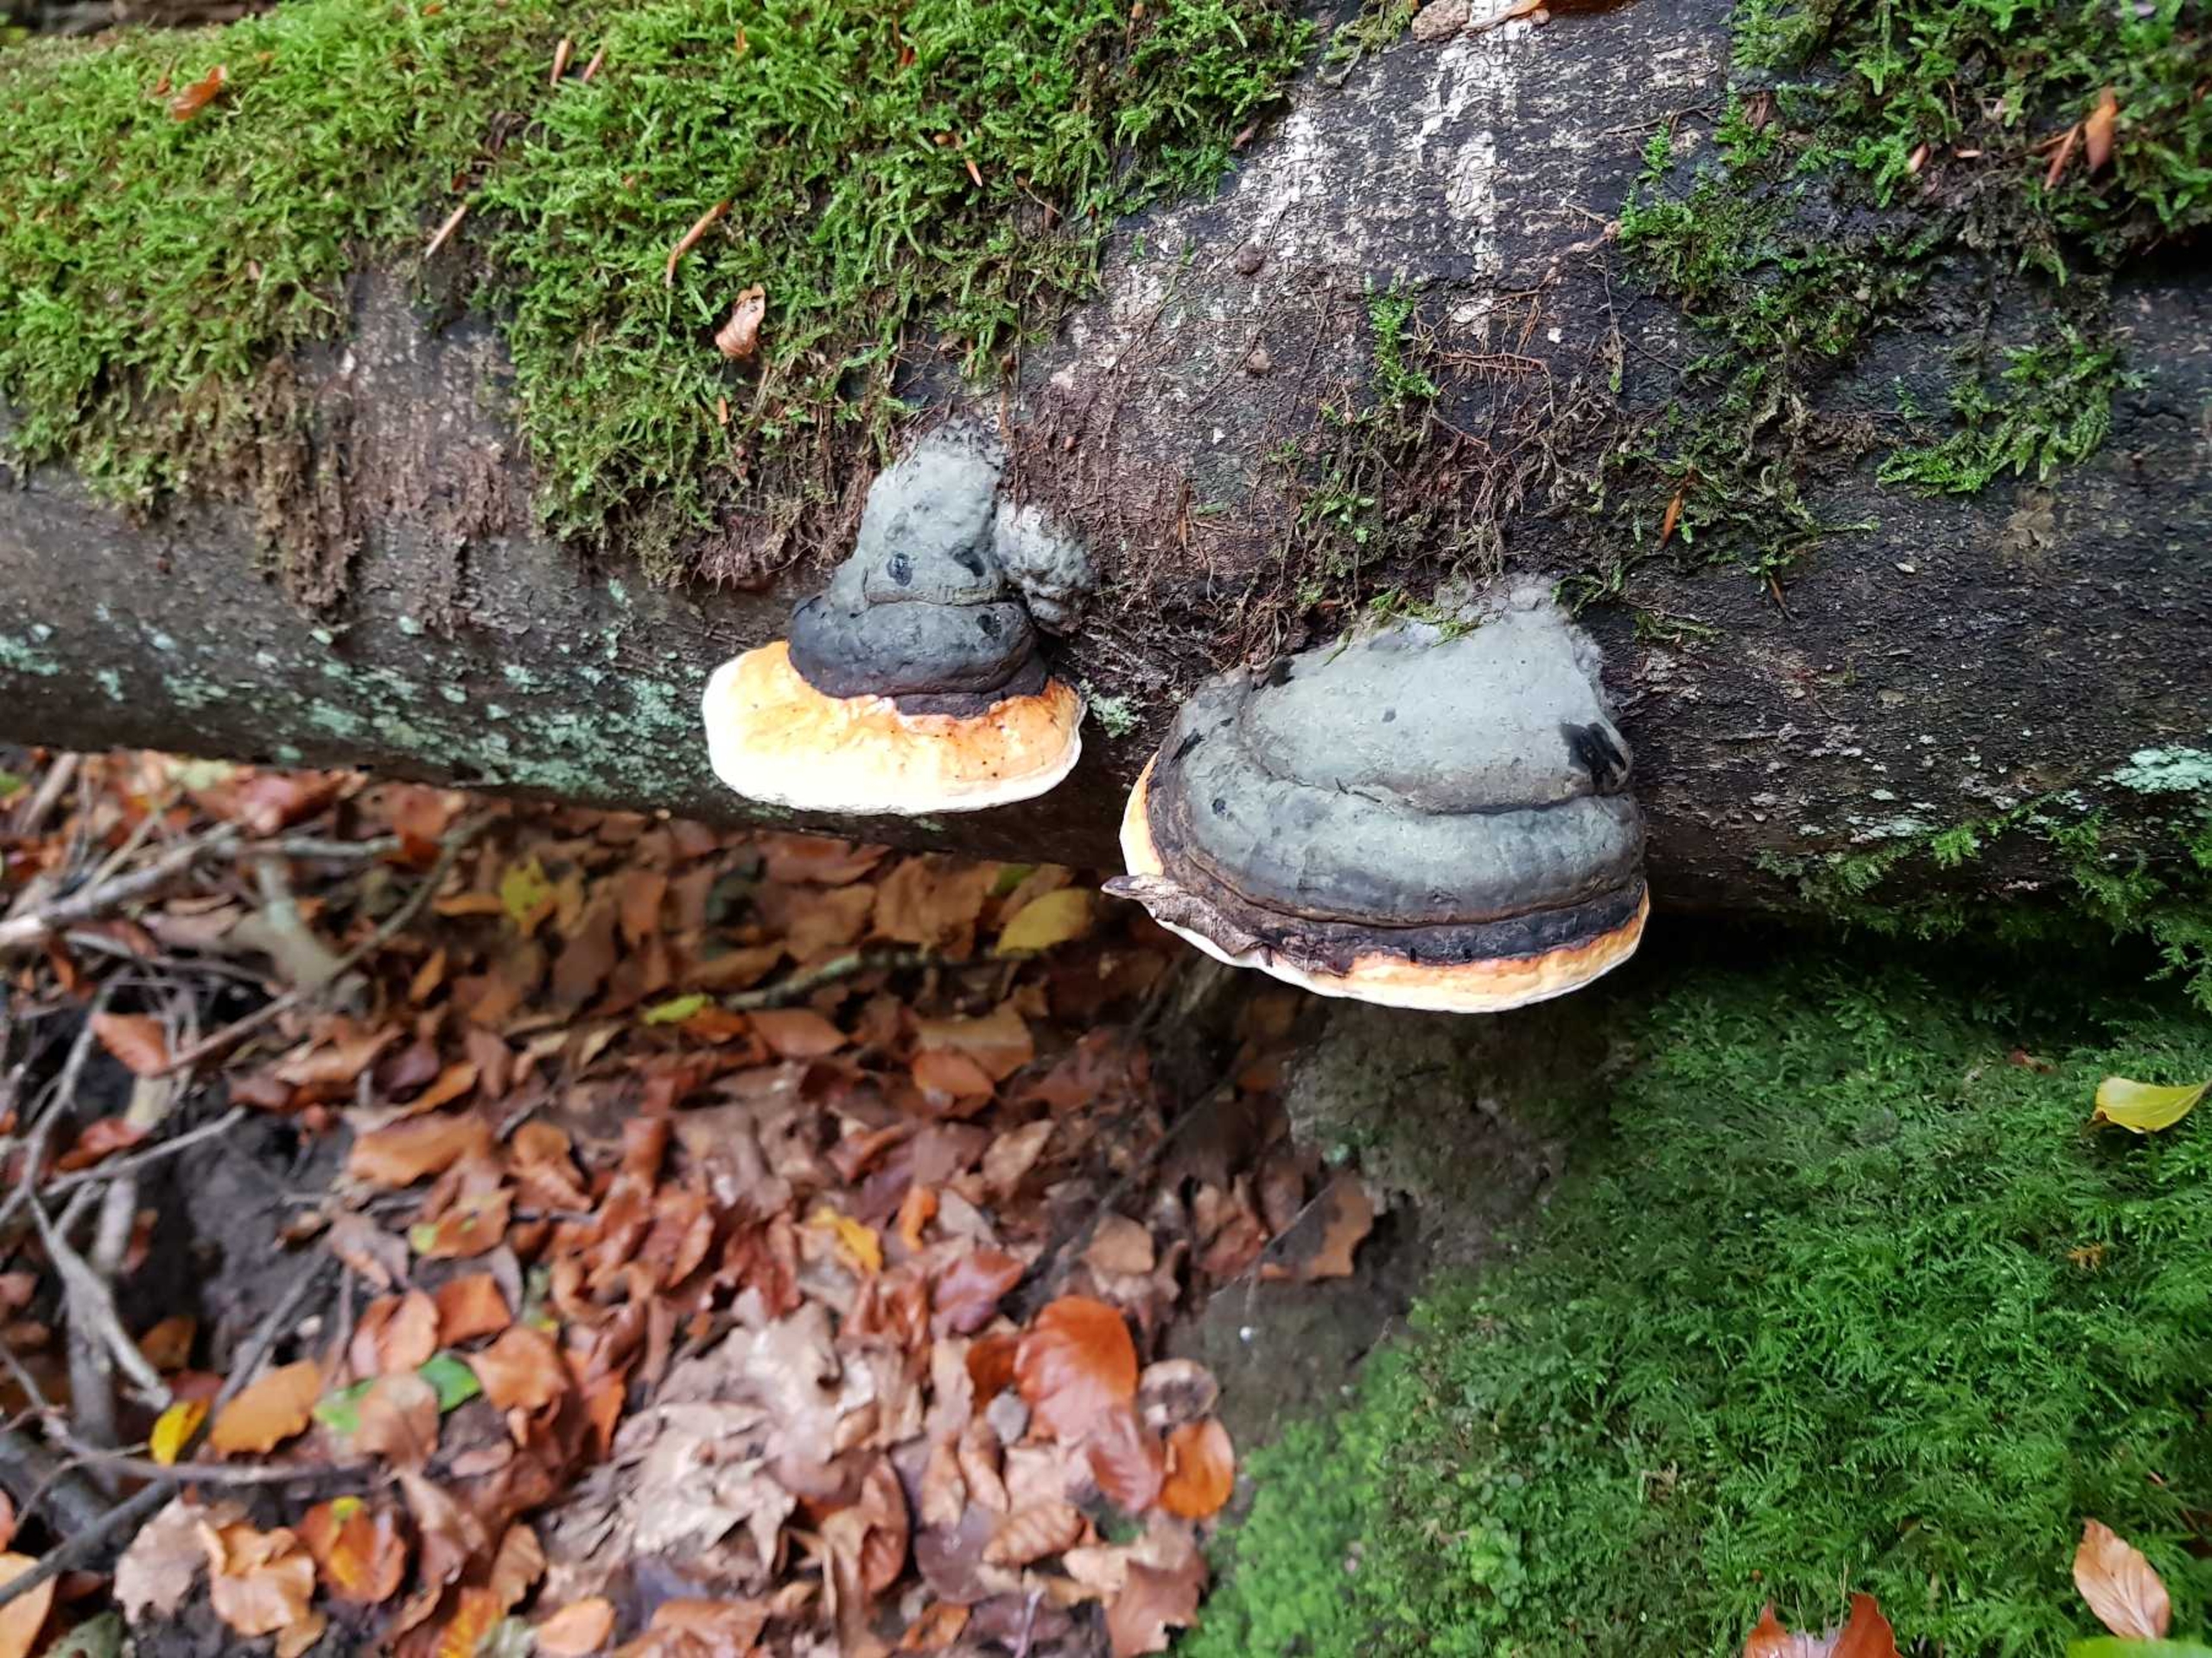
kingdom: Fungi
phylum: Basidiomycota
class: Agaricomycetes
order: Polyporales
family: Fomitopsidaceae
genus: Fomitopsis
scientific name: Fomitopsis pinicola
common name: Randbæltet hovporesvamp
